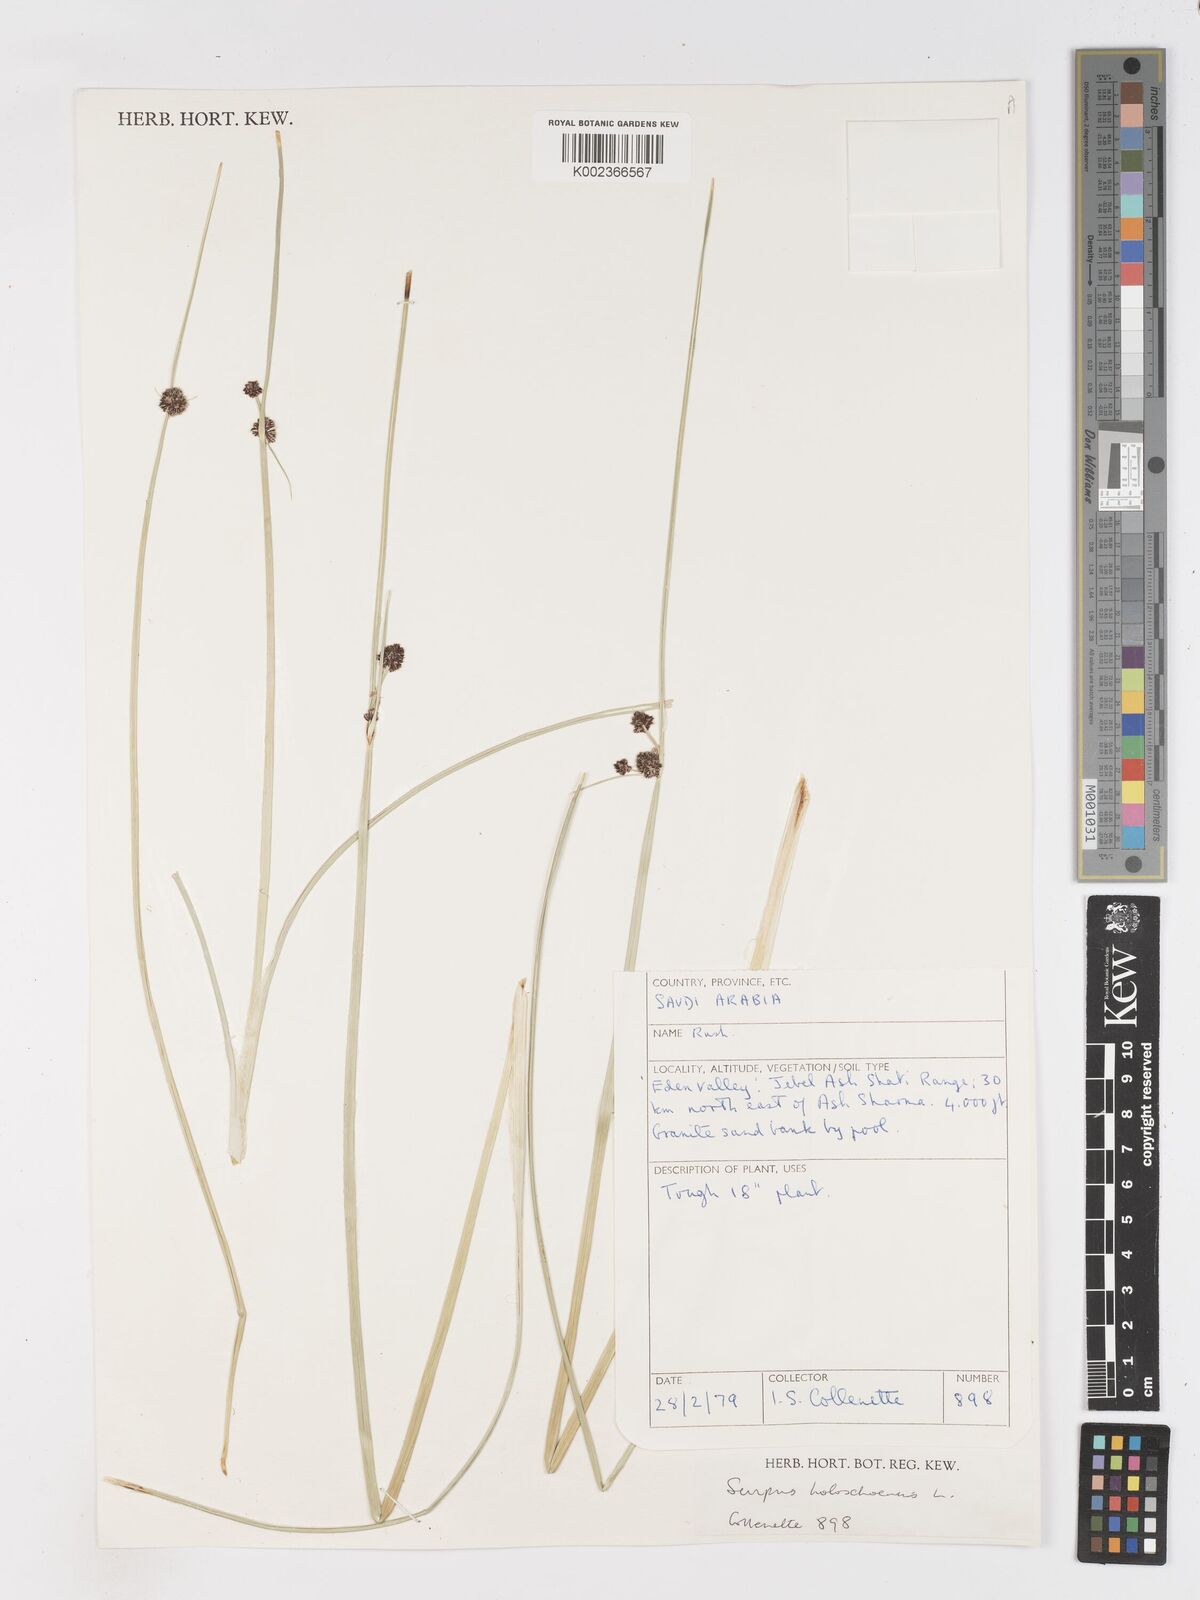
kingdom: Plantae
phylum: Tracheophyta
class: Liliopsida
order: Poales
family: Cyperaceae
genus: Scirpoides
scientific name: Scirpoides holoschoenus
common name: Round-headed club-rush
